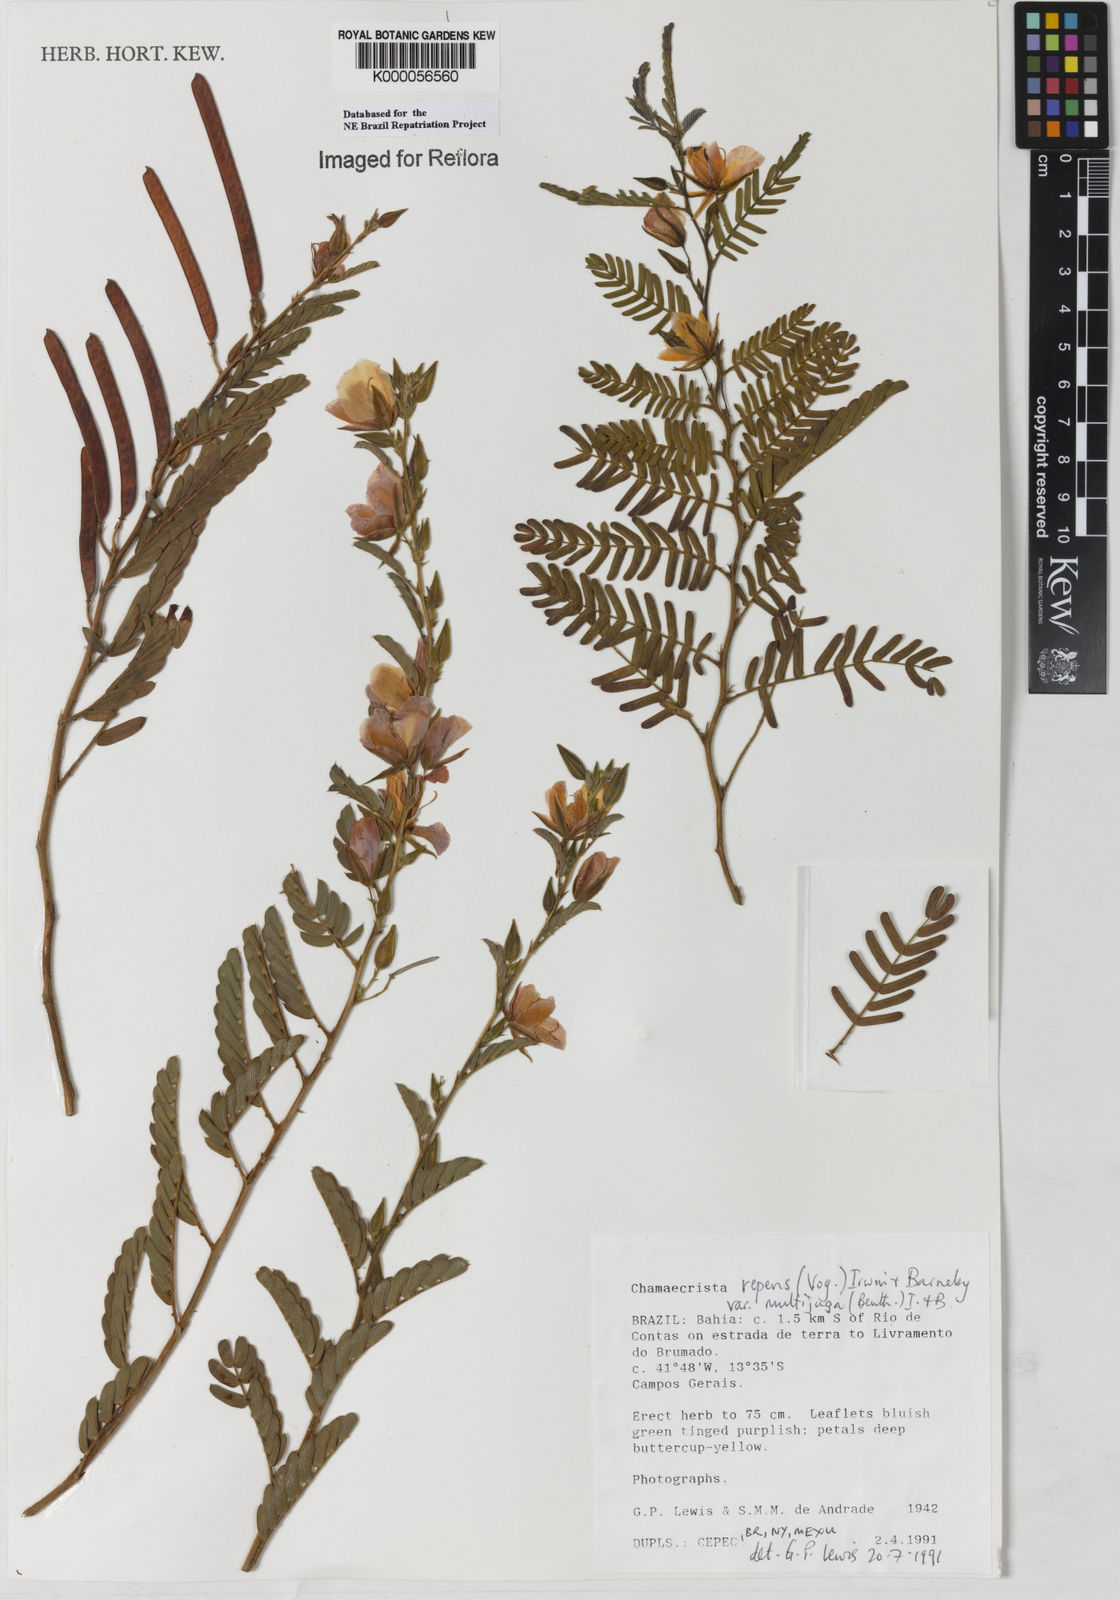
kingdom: Plantae
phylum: Tracheophyta
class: Magnoliopsida
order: Fabales
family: Fabaceae
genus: Chamaecrista
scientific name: Chamaecrista repens
